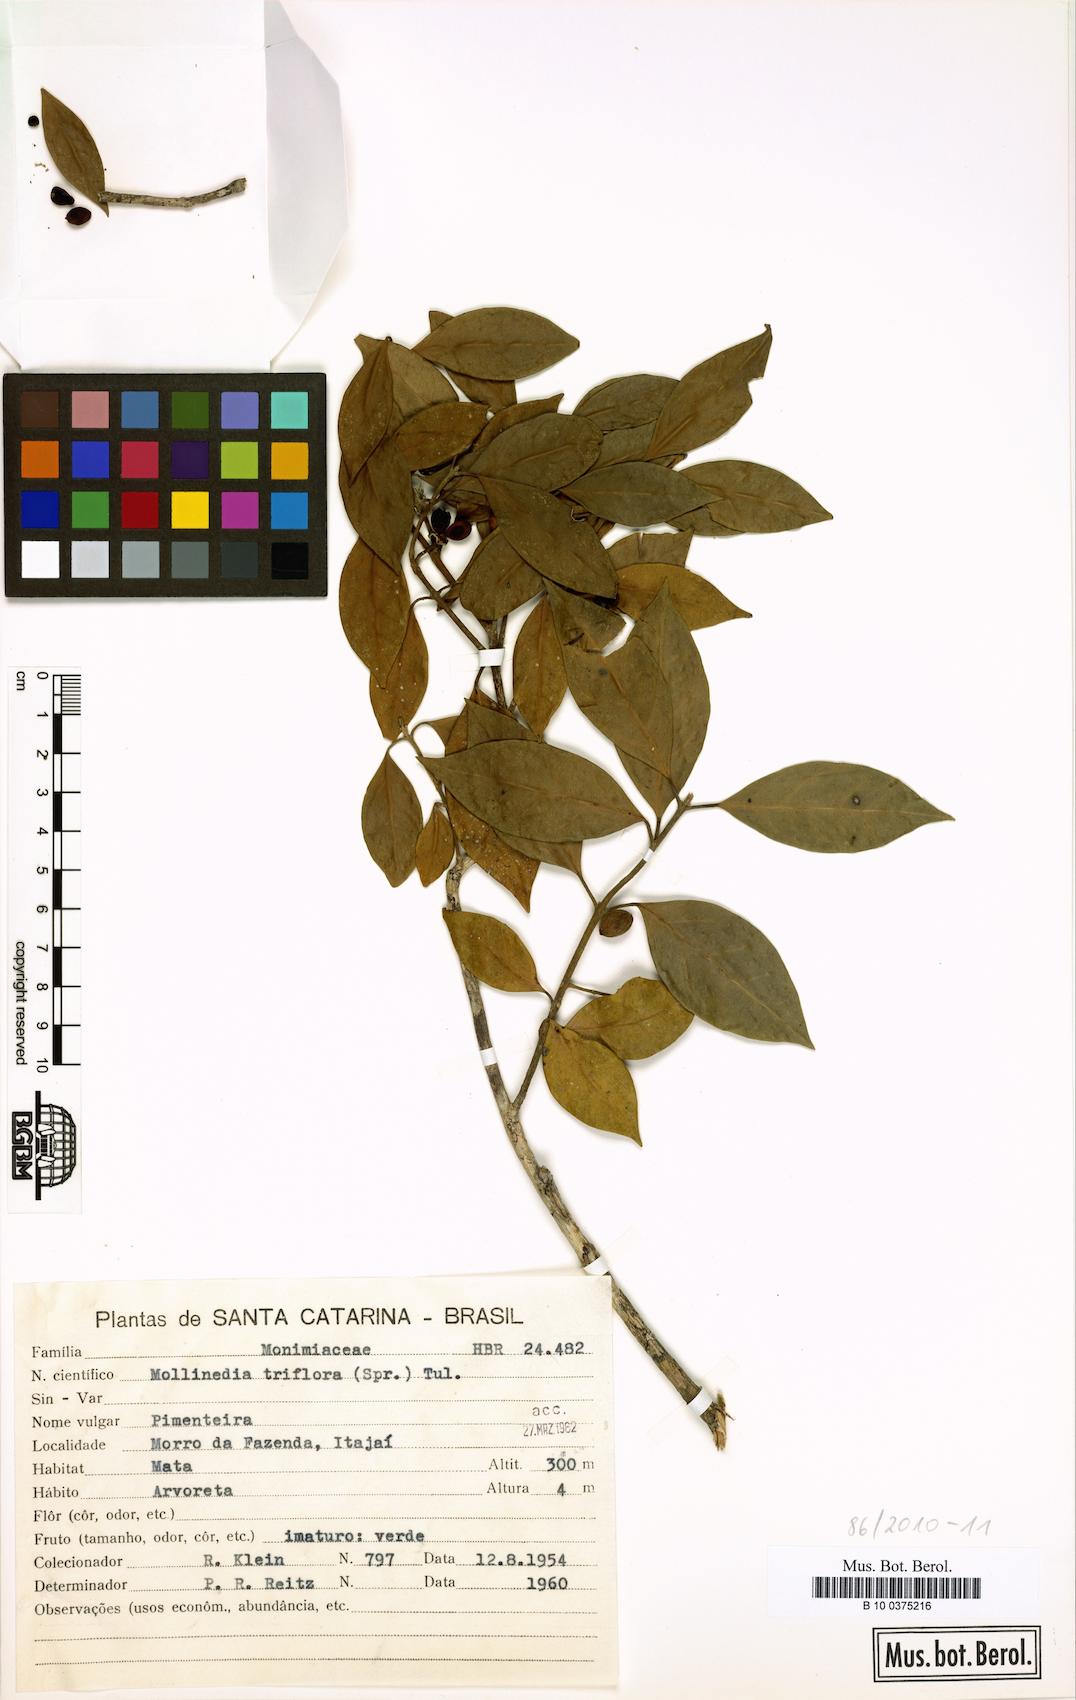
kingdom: Plantae
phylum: Tracheophyta
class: Magnoliopsida
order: Laurales
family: Monimiaceae
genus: Mollinedia
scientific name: Mollinedia triflora
